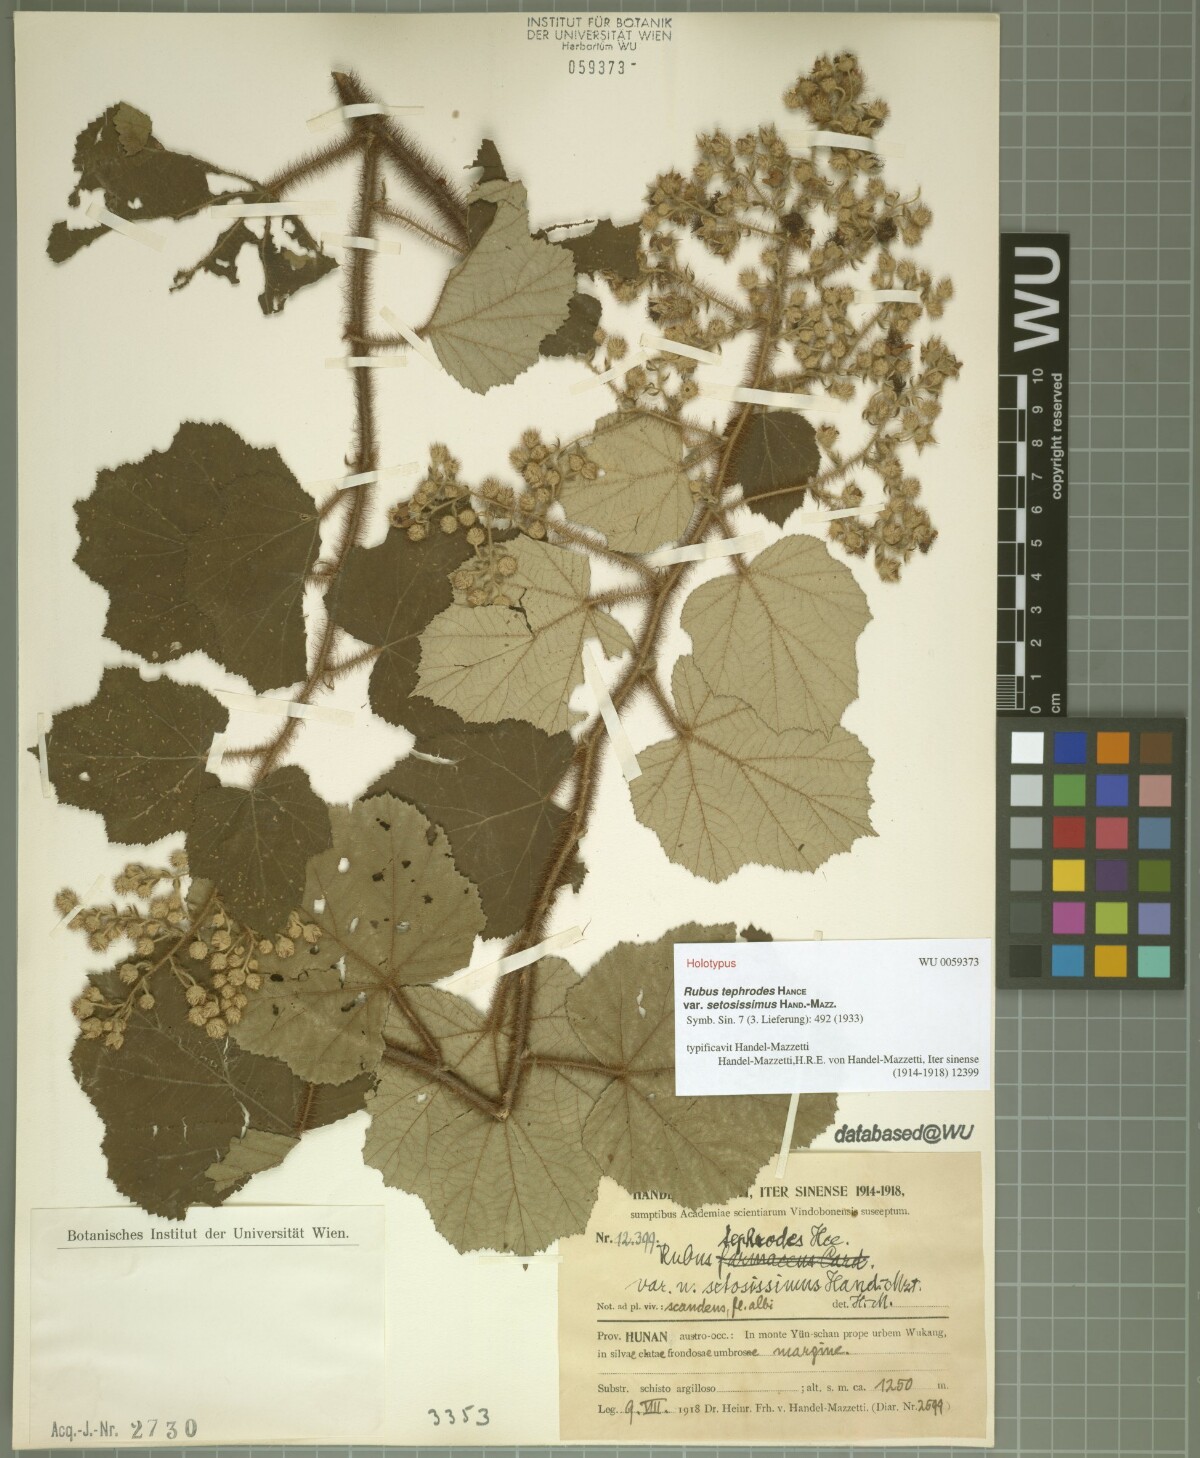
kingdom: Plantae
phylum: Tracheophyta
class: Magnoliopsida
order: Rosales
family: Rosaceae
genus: Rubus
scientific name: Rubus tephrodes
